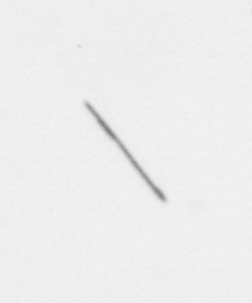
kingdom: Chromista
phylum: Ochrophyta
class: Bacillariophyceae
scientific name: Bacillariophyceae
